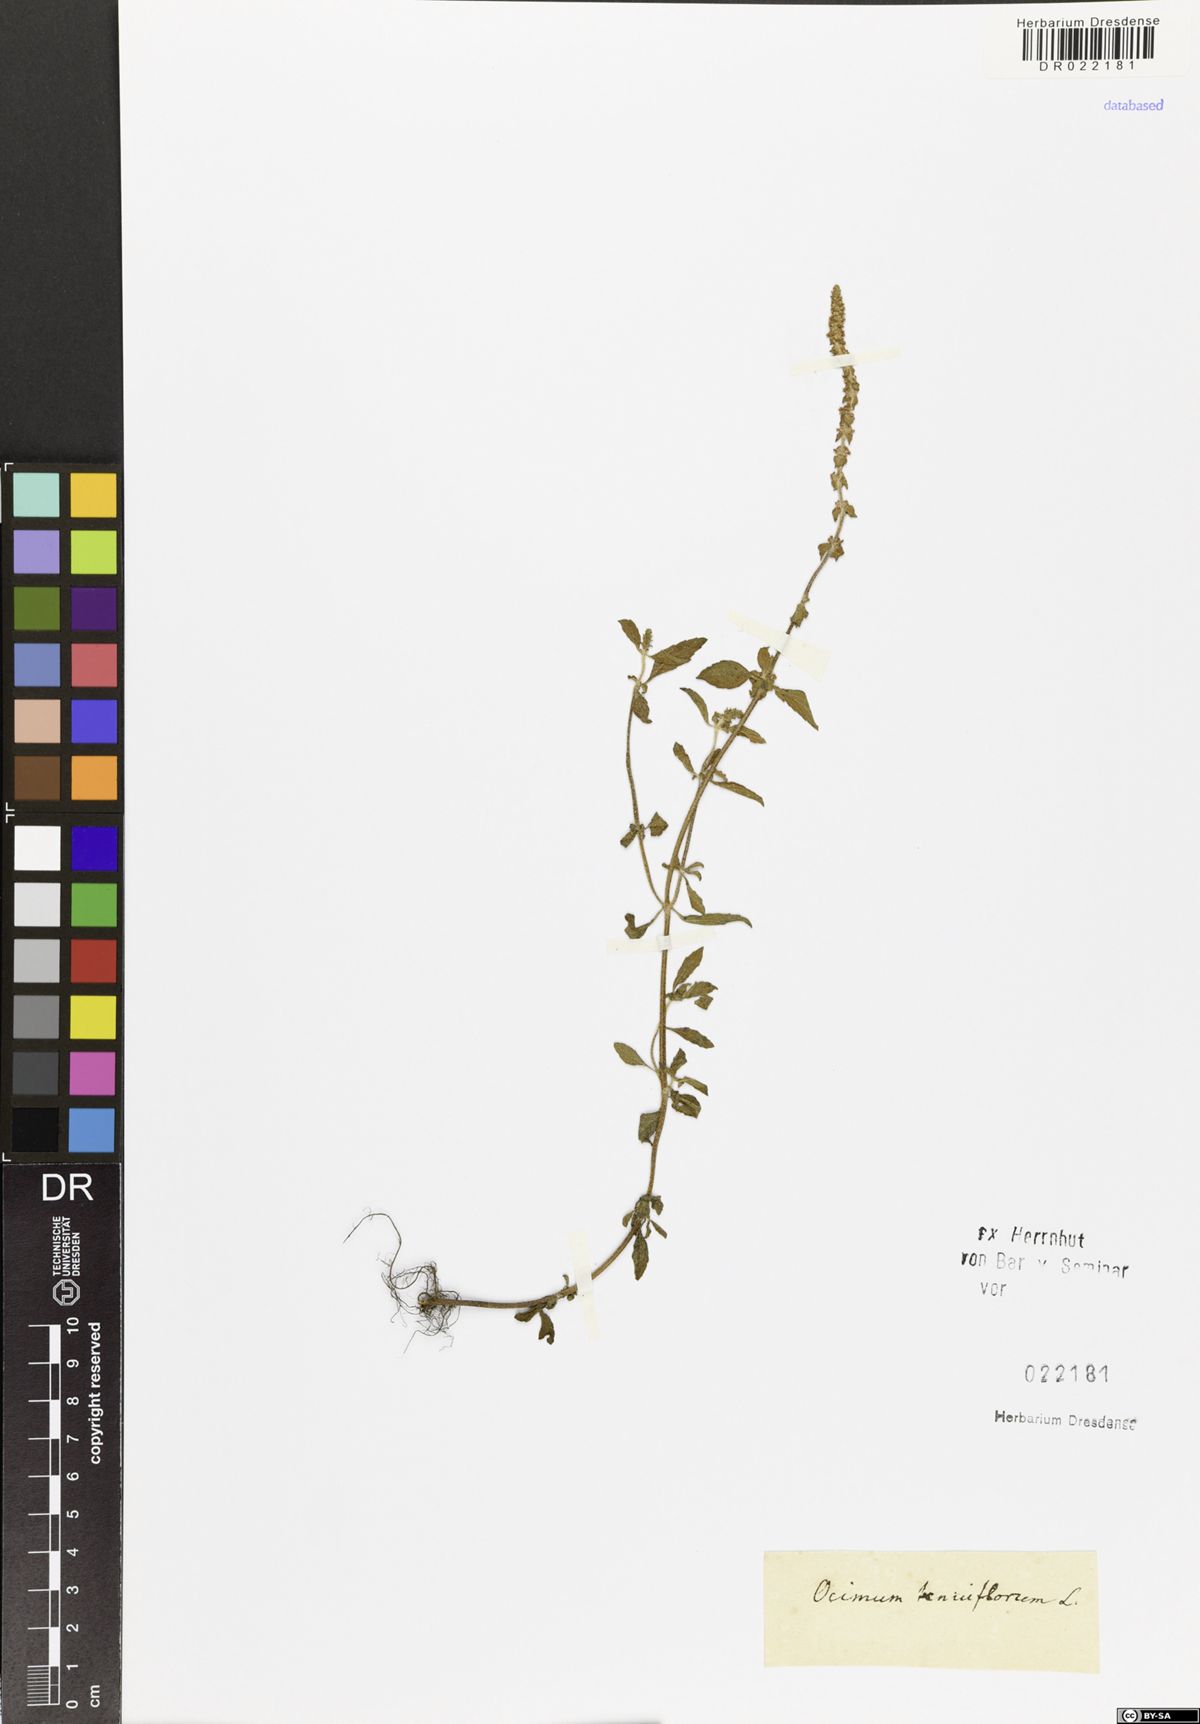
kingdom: Plantae
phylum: Tracheophyta
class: Magnoliopsida
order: Lamiales
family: Lamiaceae
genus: Ocimum
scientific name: Ocimum tenuiflorum
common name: Sacred basil
